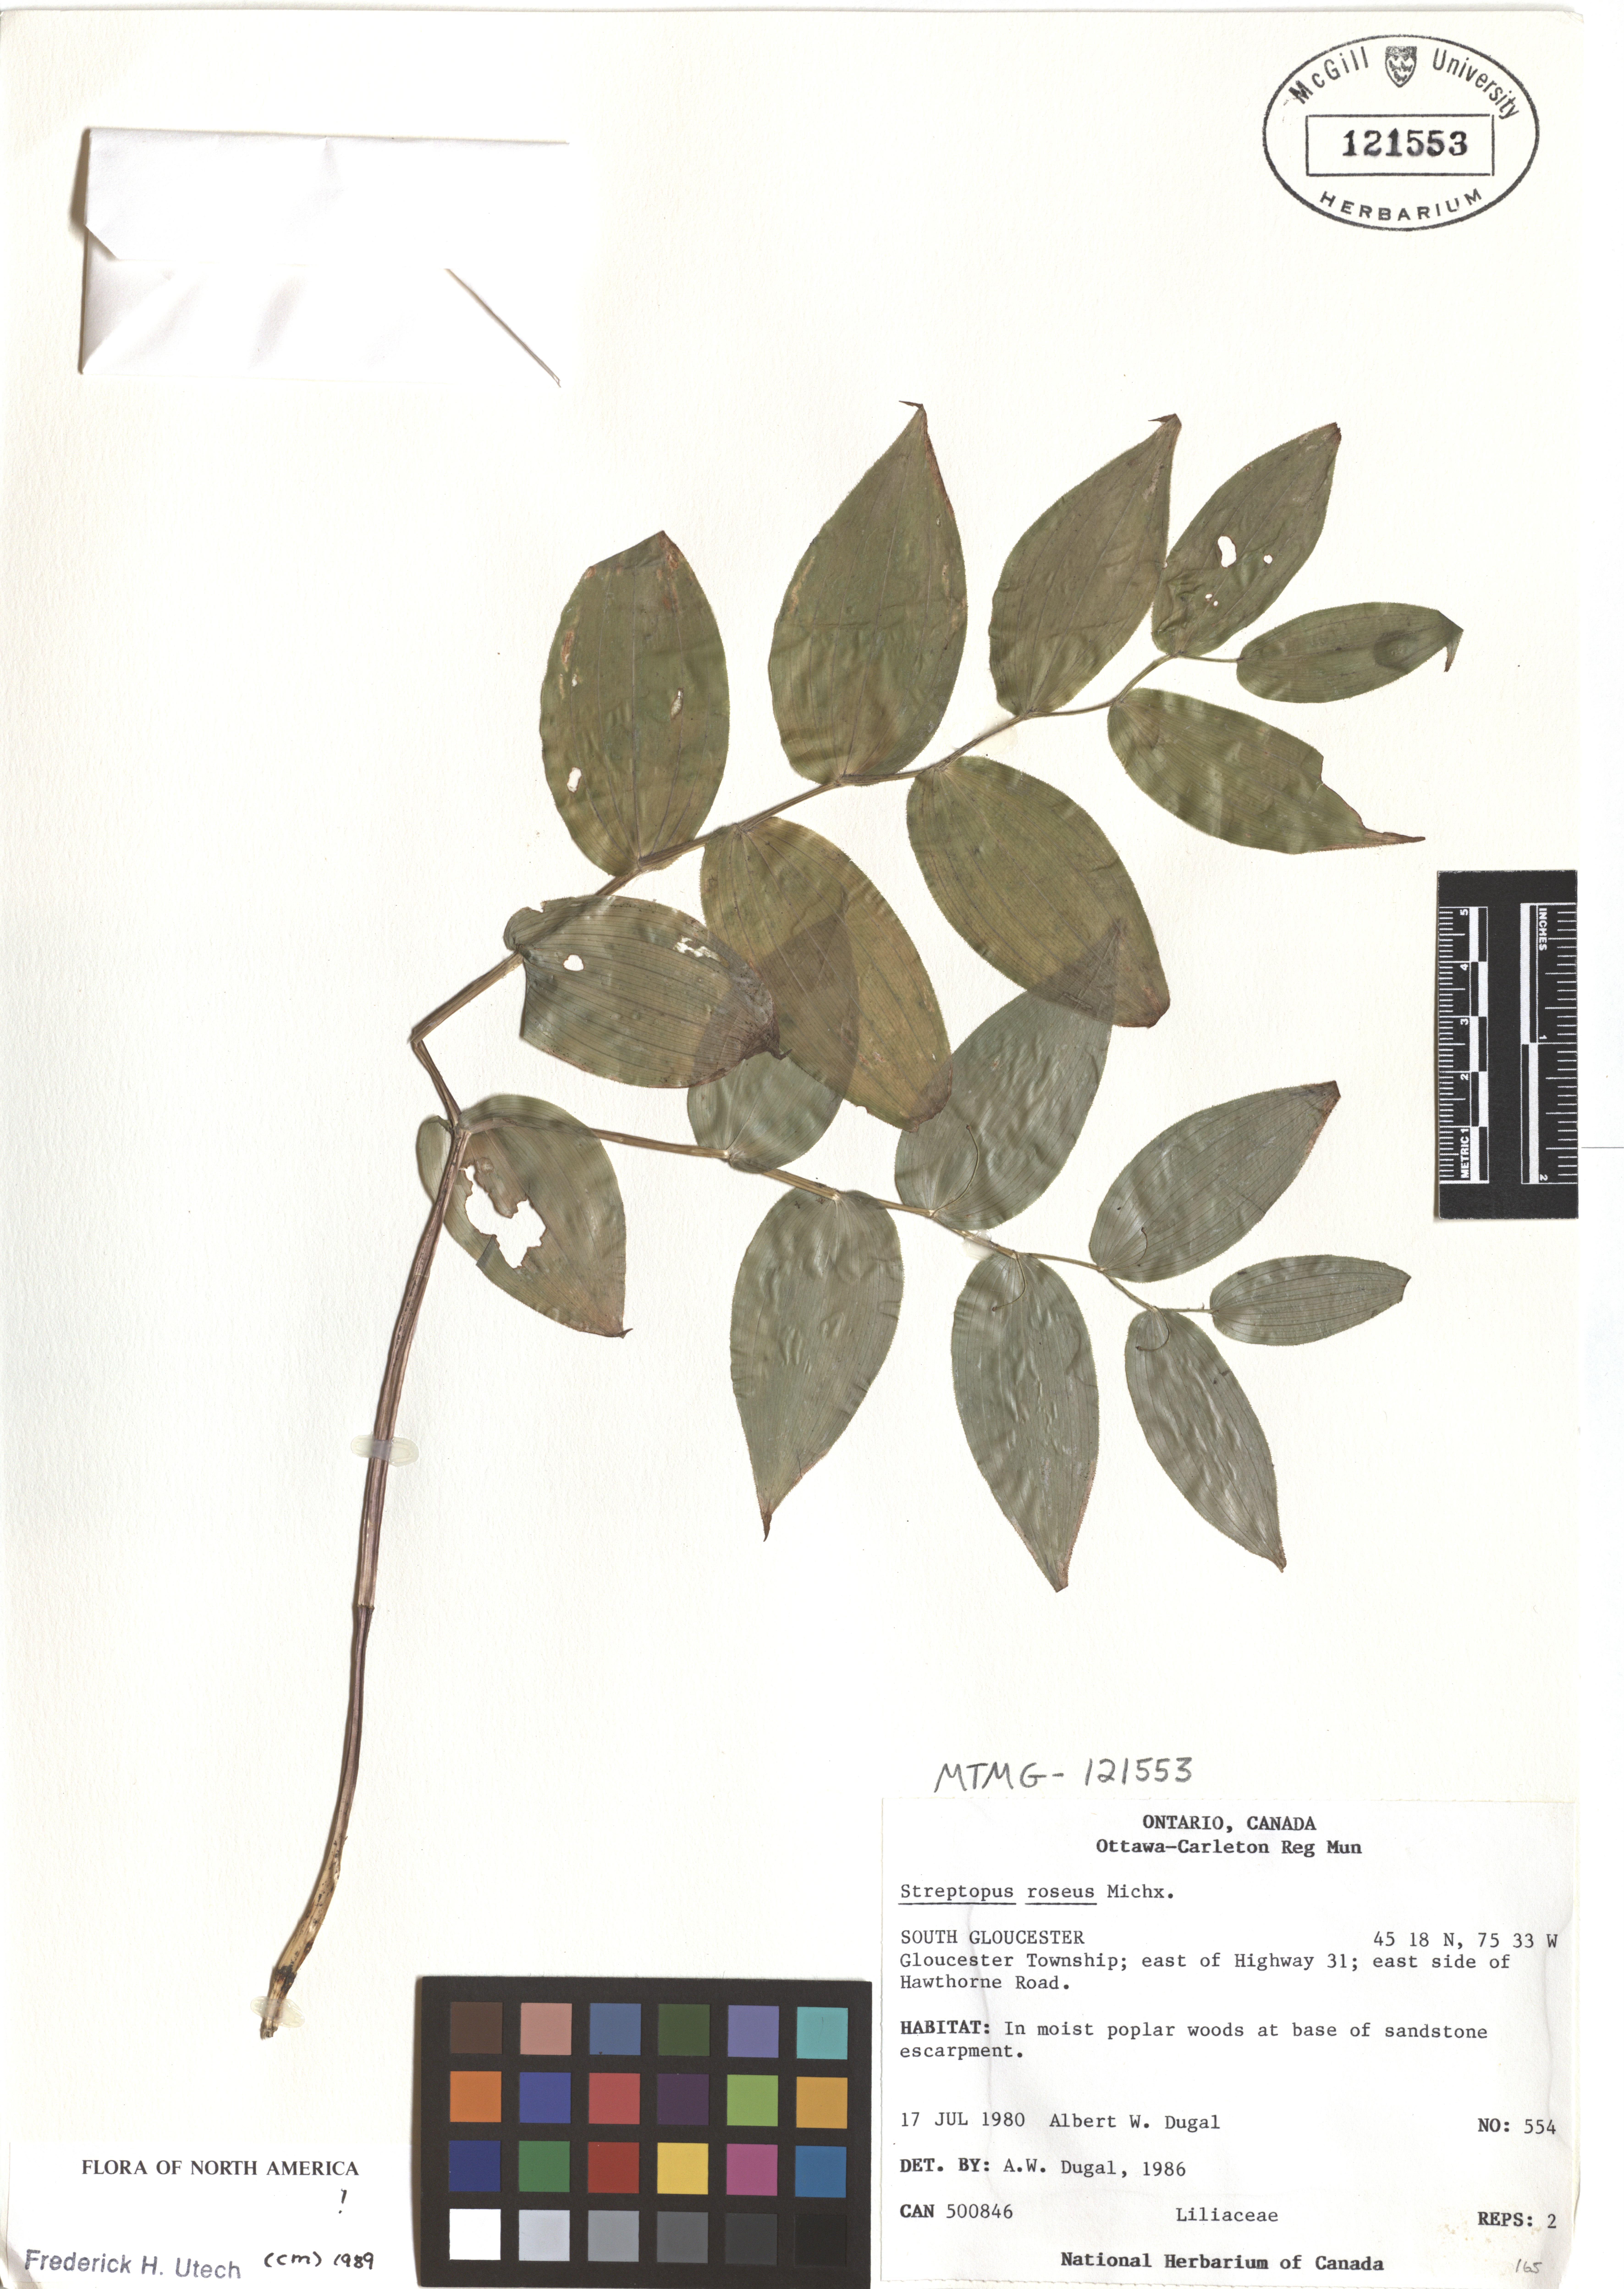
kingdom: Plantae
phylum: Tracheophyta
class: Liliopsida
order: Liliales
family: Liliaceae
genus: Streptopus
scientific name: Streptopus lanceolatus
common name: Rose mandarin
